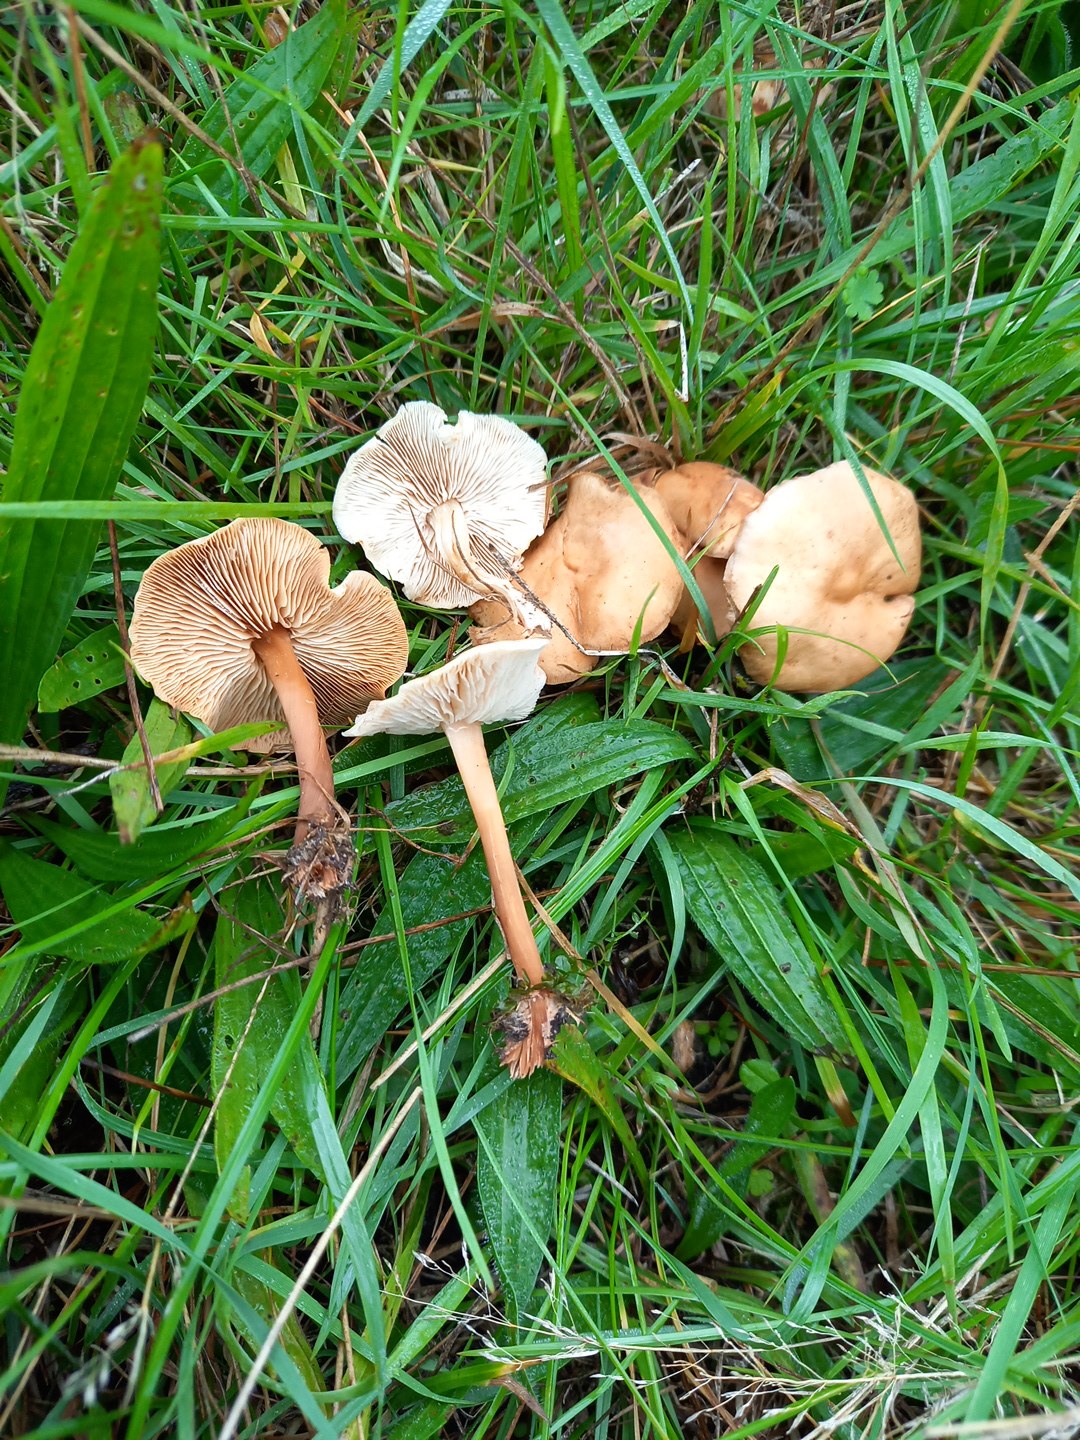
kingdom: Fungi
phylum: Basidiomycota
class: Agaricomycetes
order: Agaricales
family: Marasmiaceae
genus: Marasmius
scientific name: Marasmius oreades
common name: elledans-bruskhat
